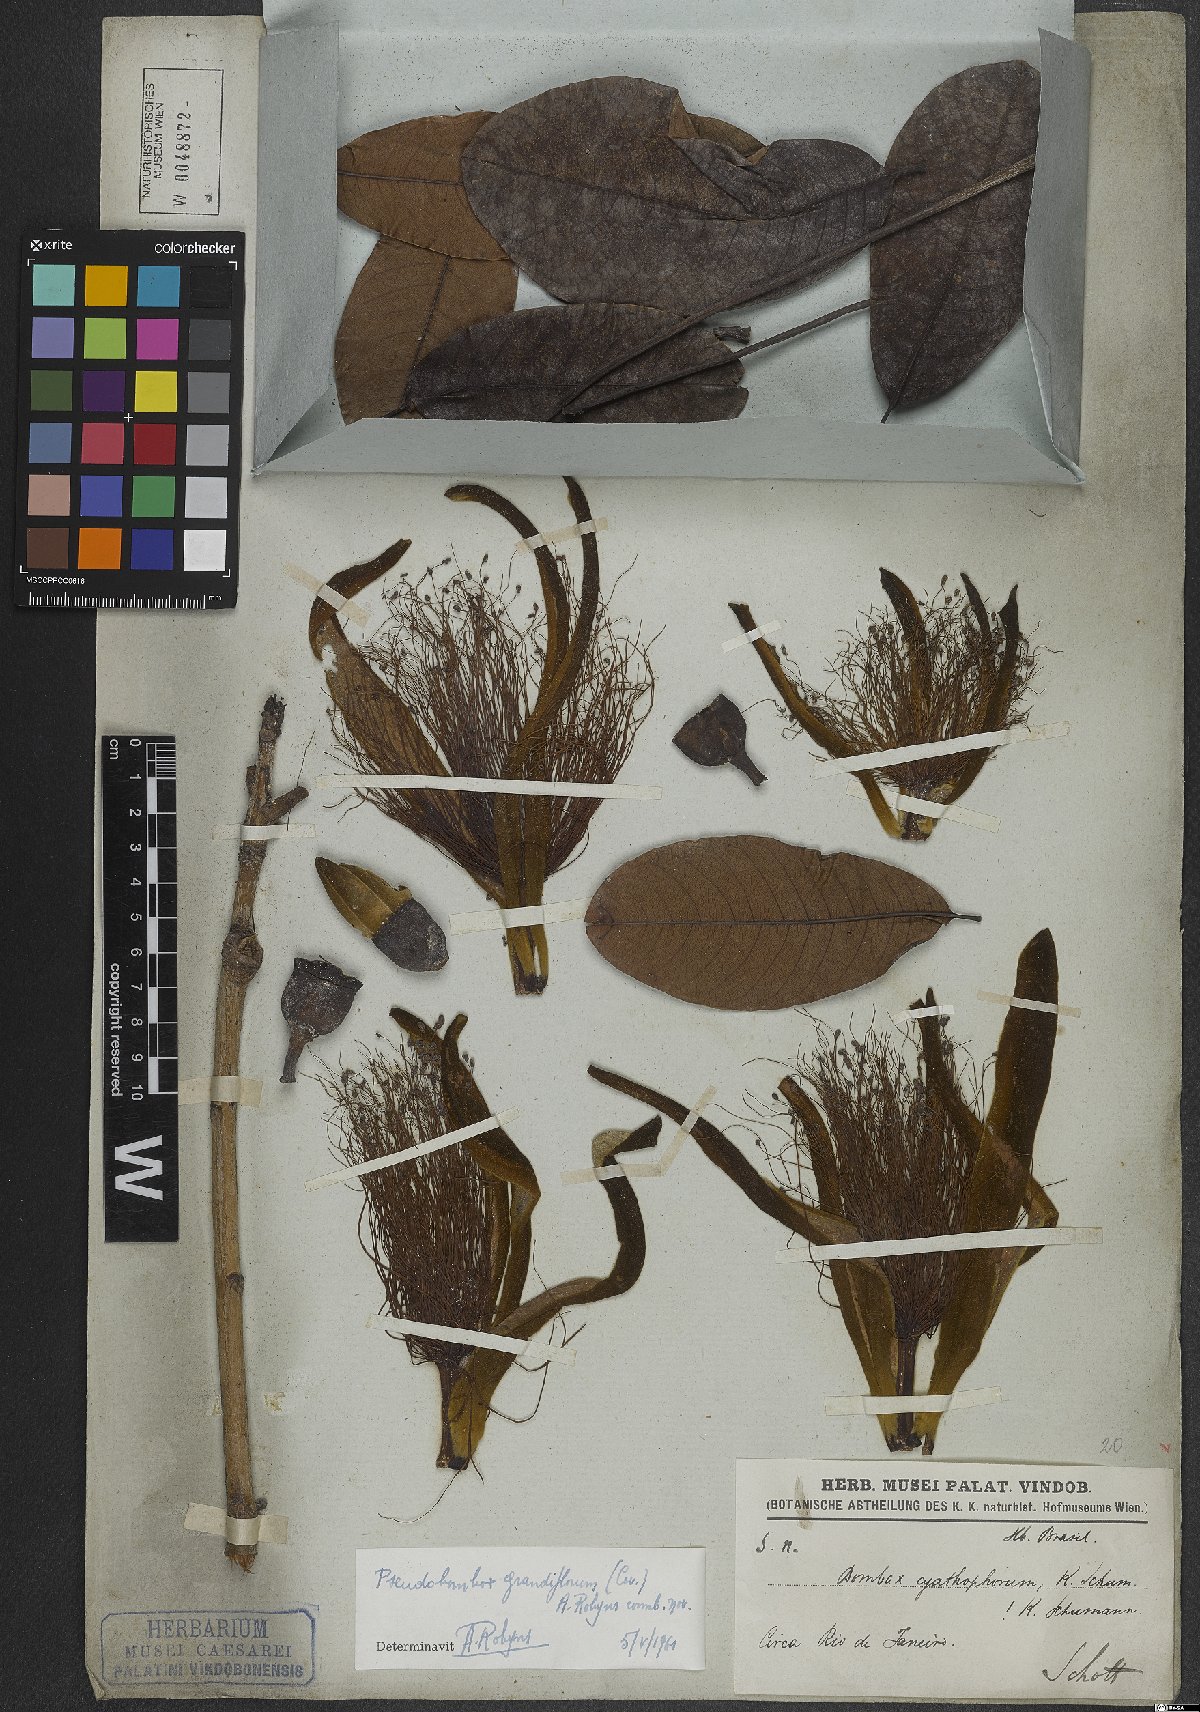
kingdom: Plantae
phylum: Tracheophyta
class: Magnoliopsida
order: Malvales
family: Malvaceae
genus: Pseudobombax
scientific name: Pseudobombax grandiflorum
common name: Brazilian shaving-brush-tree
